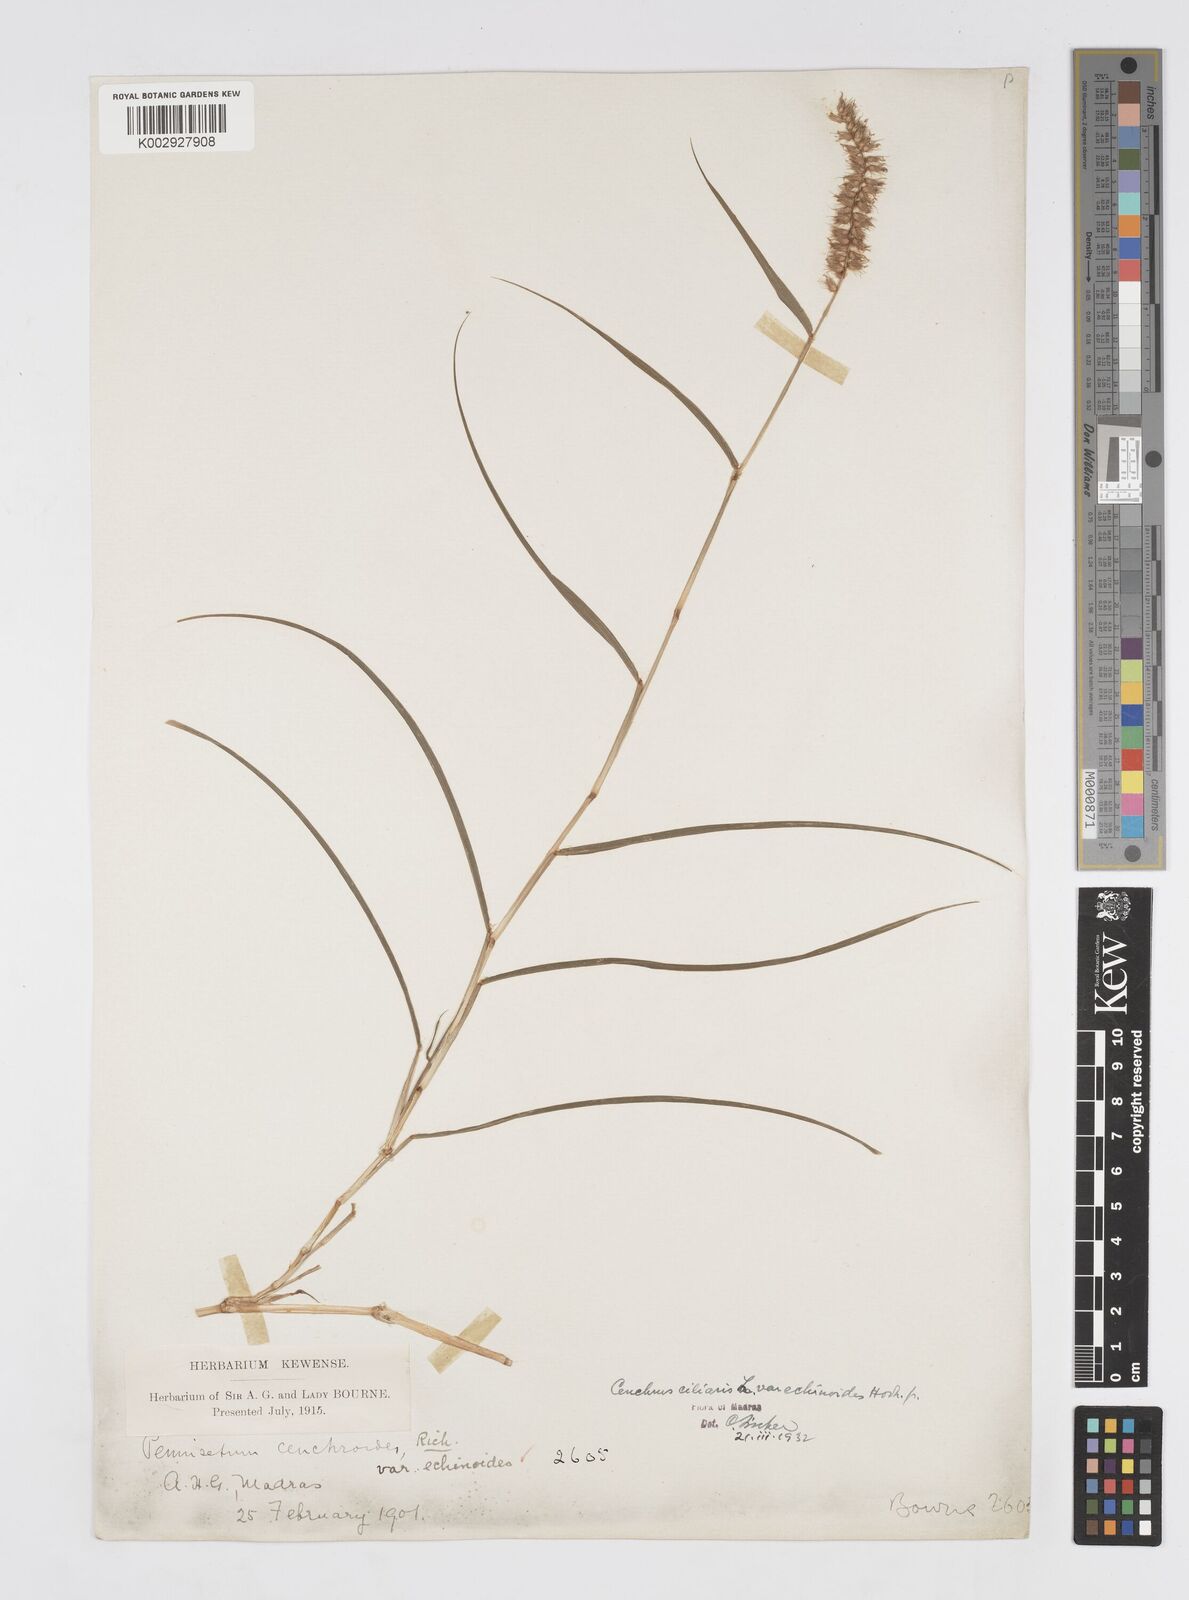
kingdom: Plantae
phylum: Tracheophyta
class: Liliopsida
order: Poales
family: Poaceae
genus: Cenchrus
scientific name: Cenchrus pennisetiformis
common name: Cloncurry
